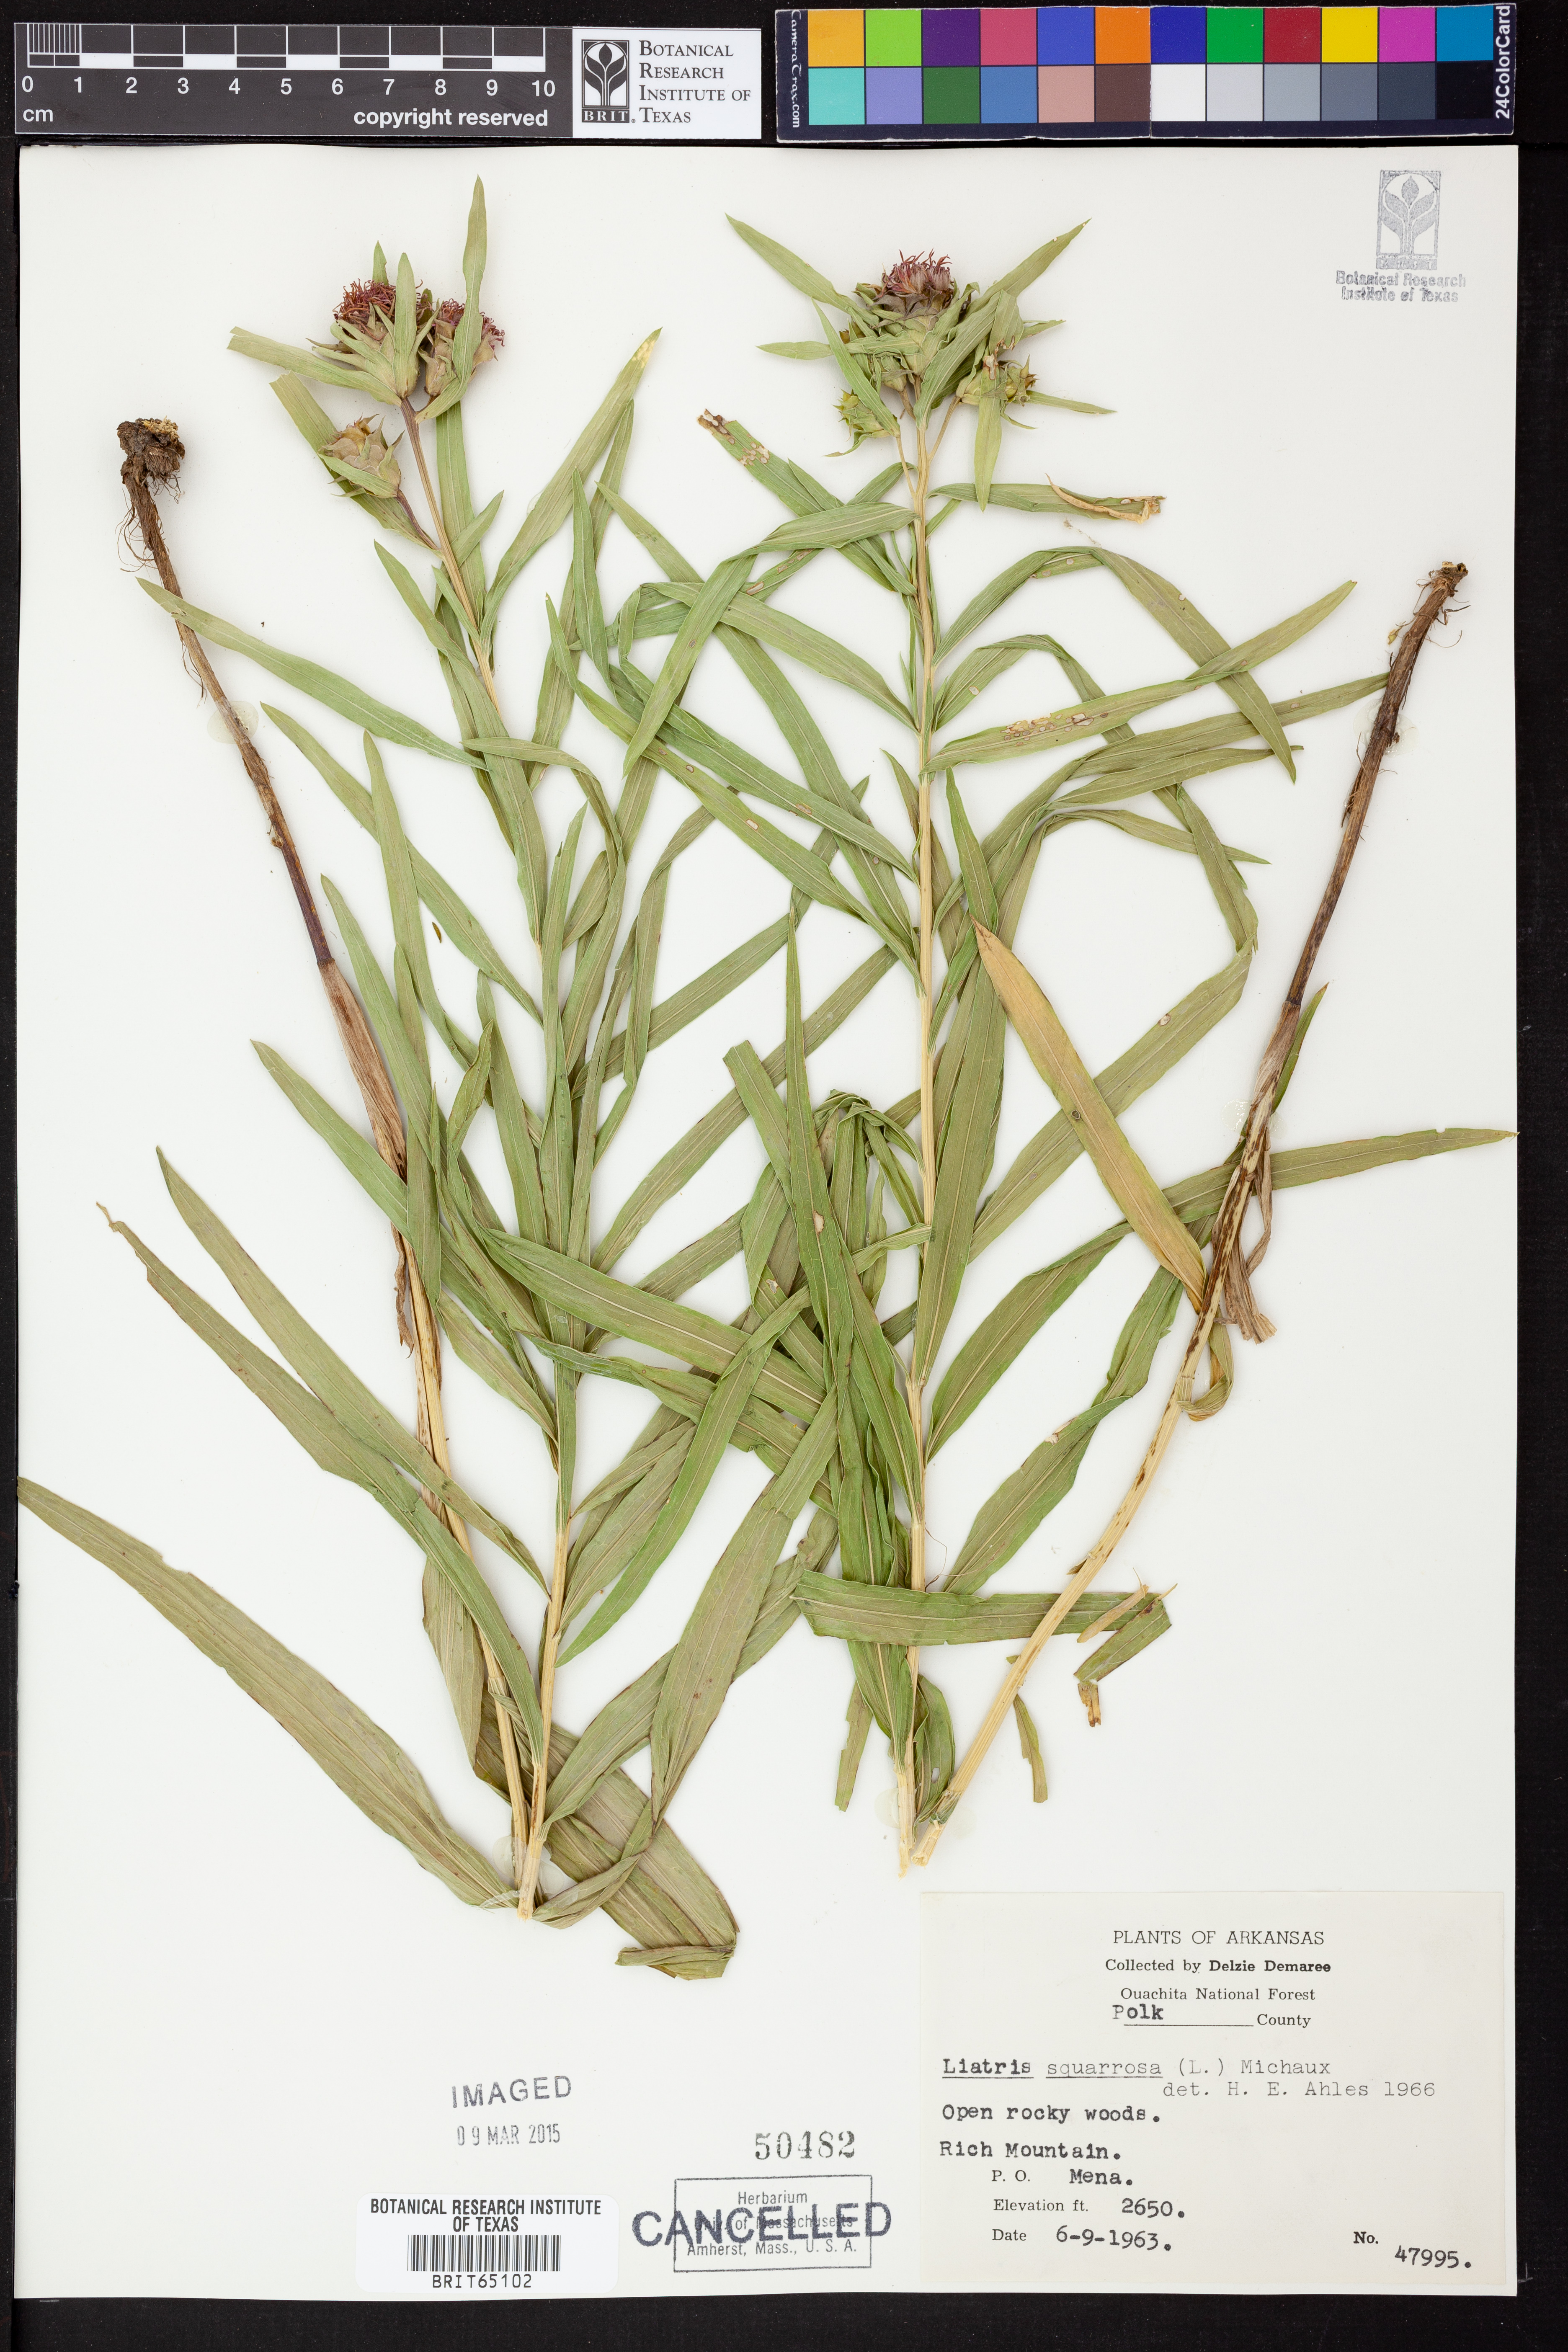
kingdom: Plantae
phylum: Tracheophyta
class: Magnoliopsida
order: Asterales
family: Asteraceae
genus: Liatris
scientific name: Liatris compacta
